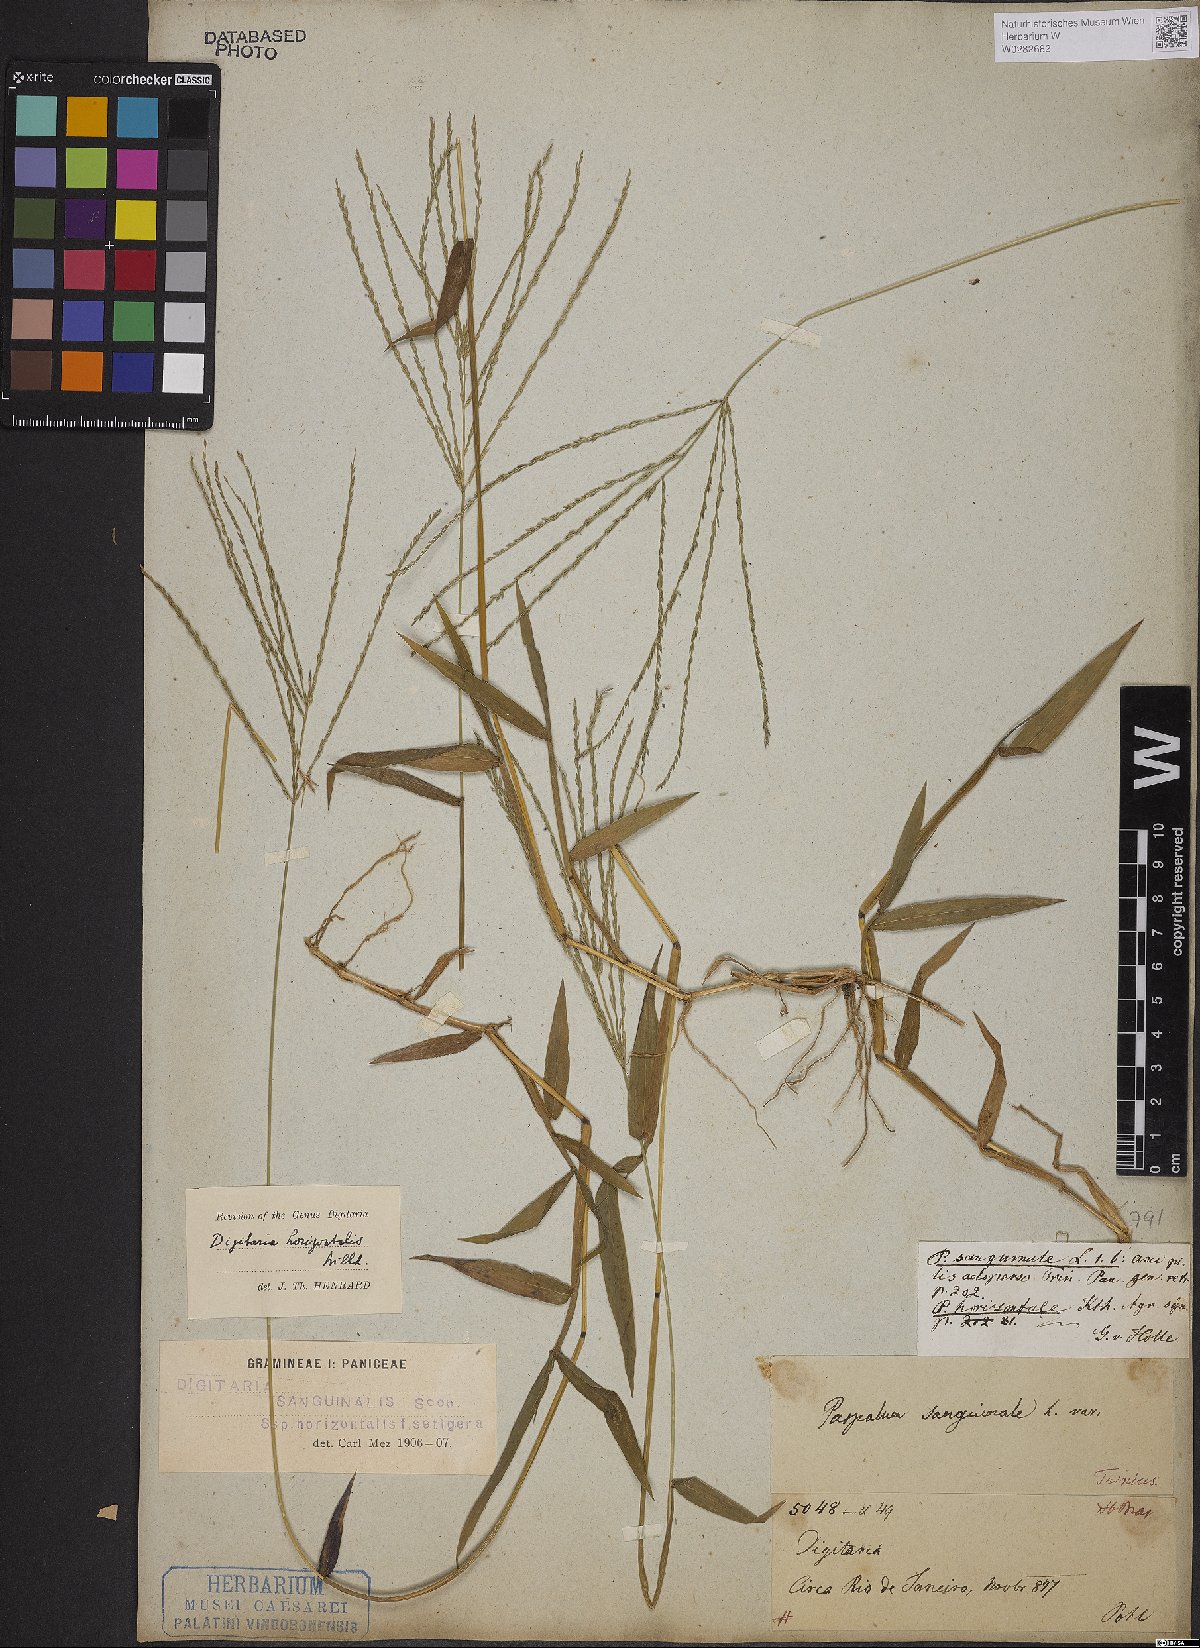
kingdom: Plantae
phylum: Tracheophyta
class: Liliopsida
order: Poales
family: Poaceae
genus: Digitaria
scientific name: Digitaria horizontalis
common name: Jamaican crabgrass
